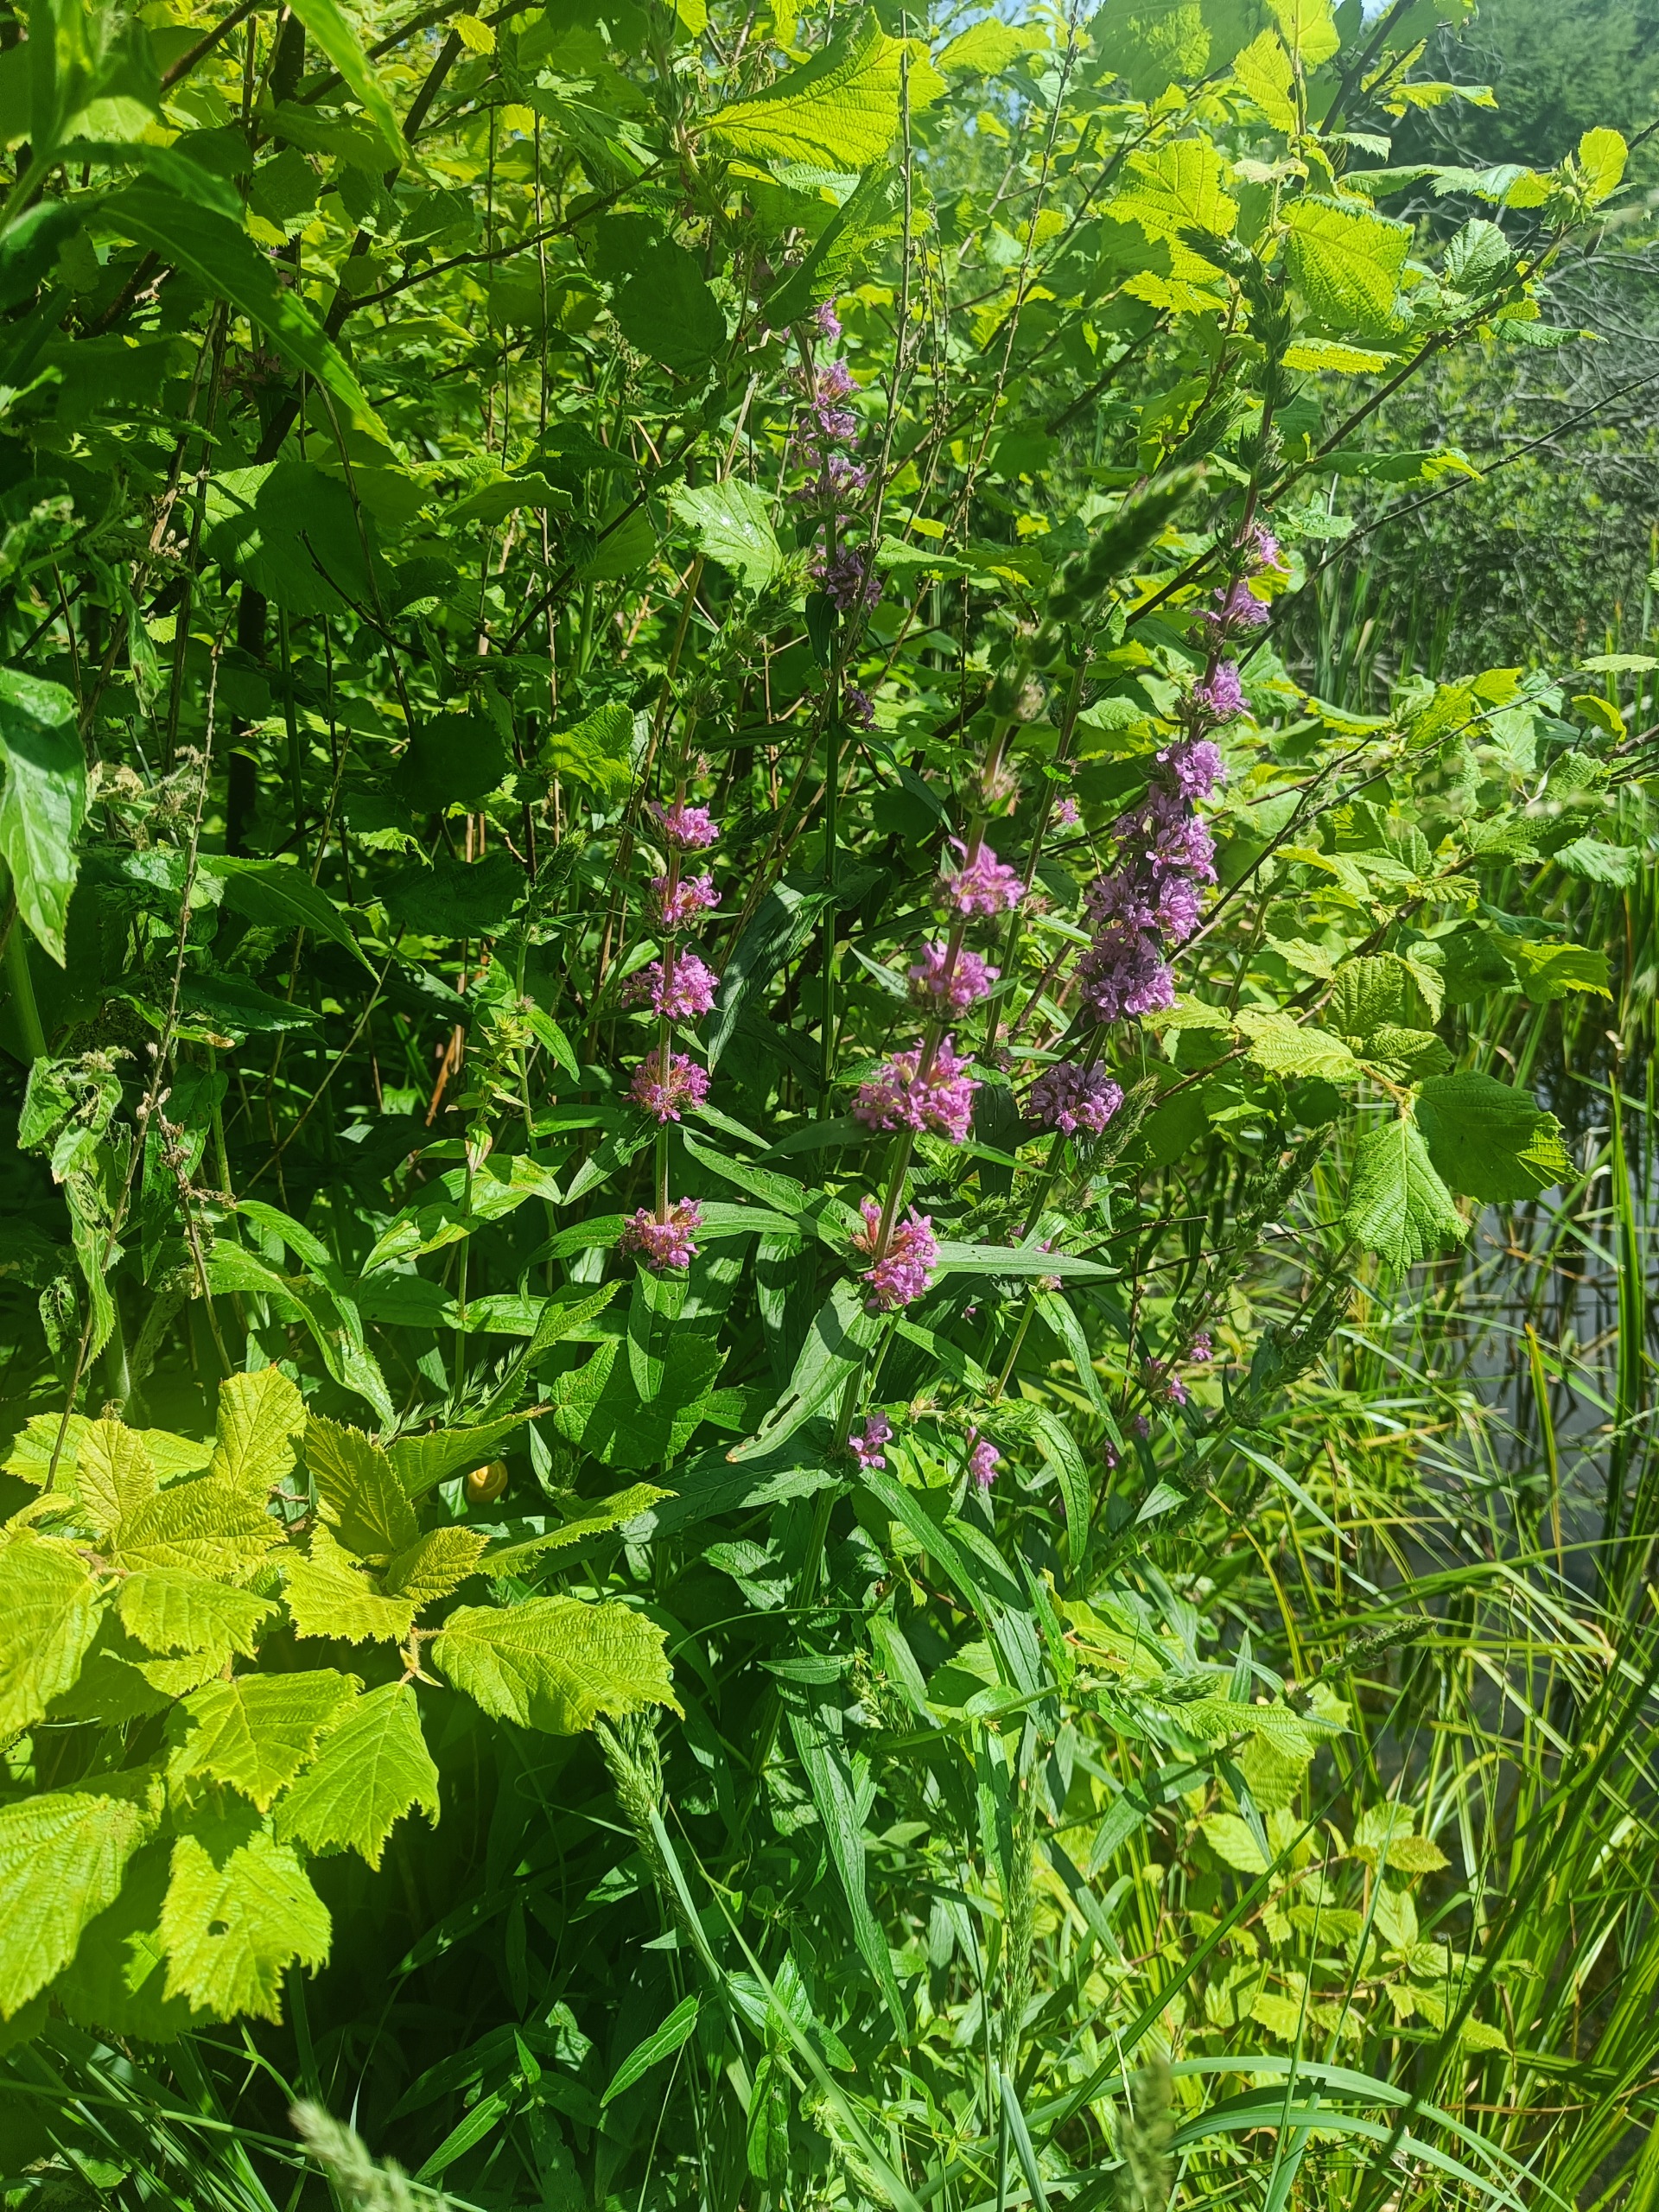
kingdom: Plantae
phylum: Tracheophyta
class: Magnoliopsida
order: Myrtales
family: Lythraceae
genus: Lythrum
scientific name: Lythrum salicaria
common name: Kattehale
